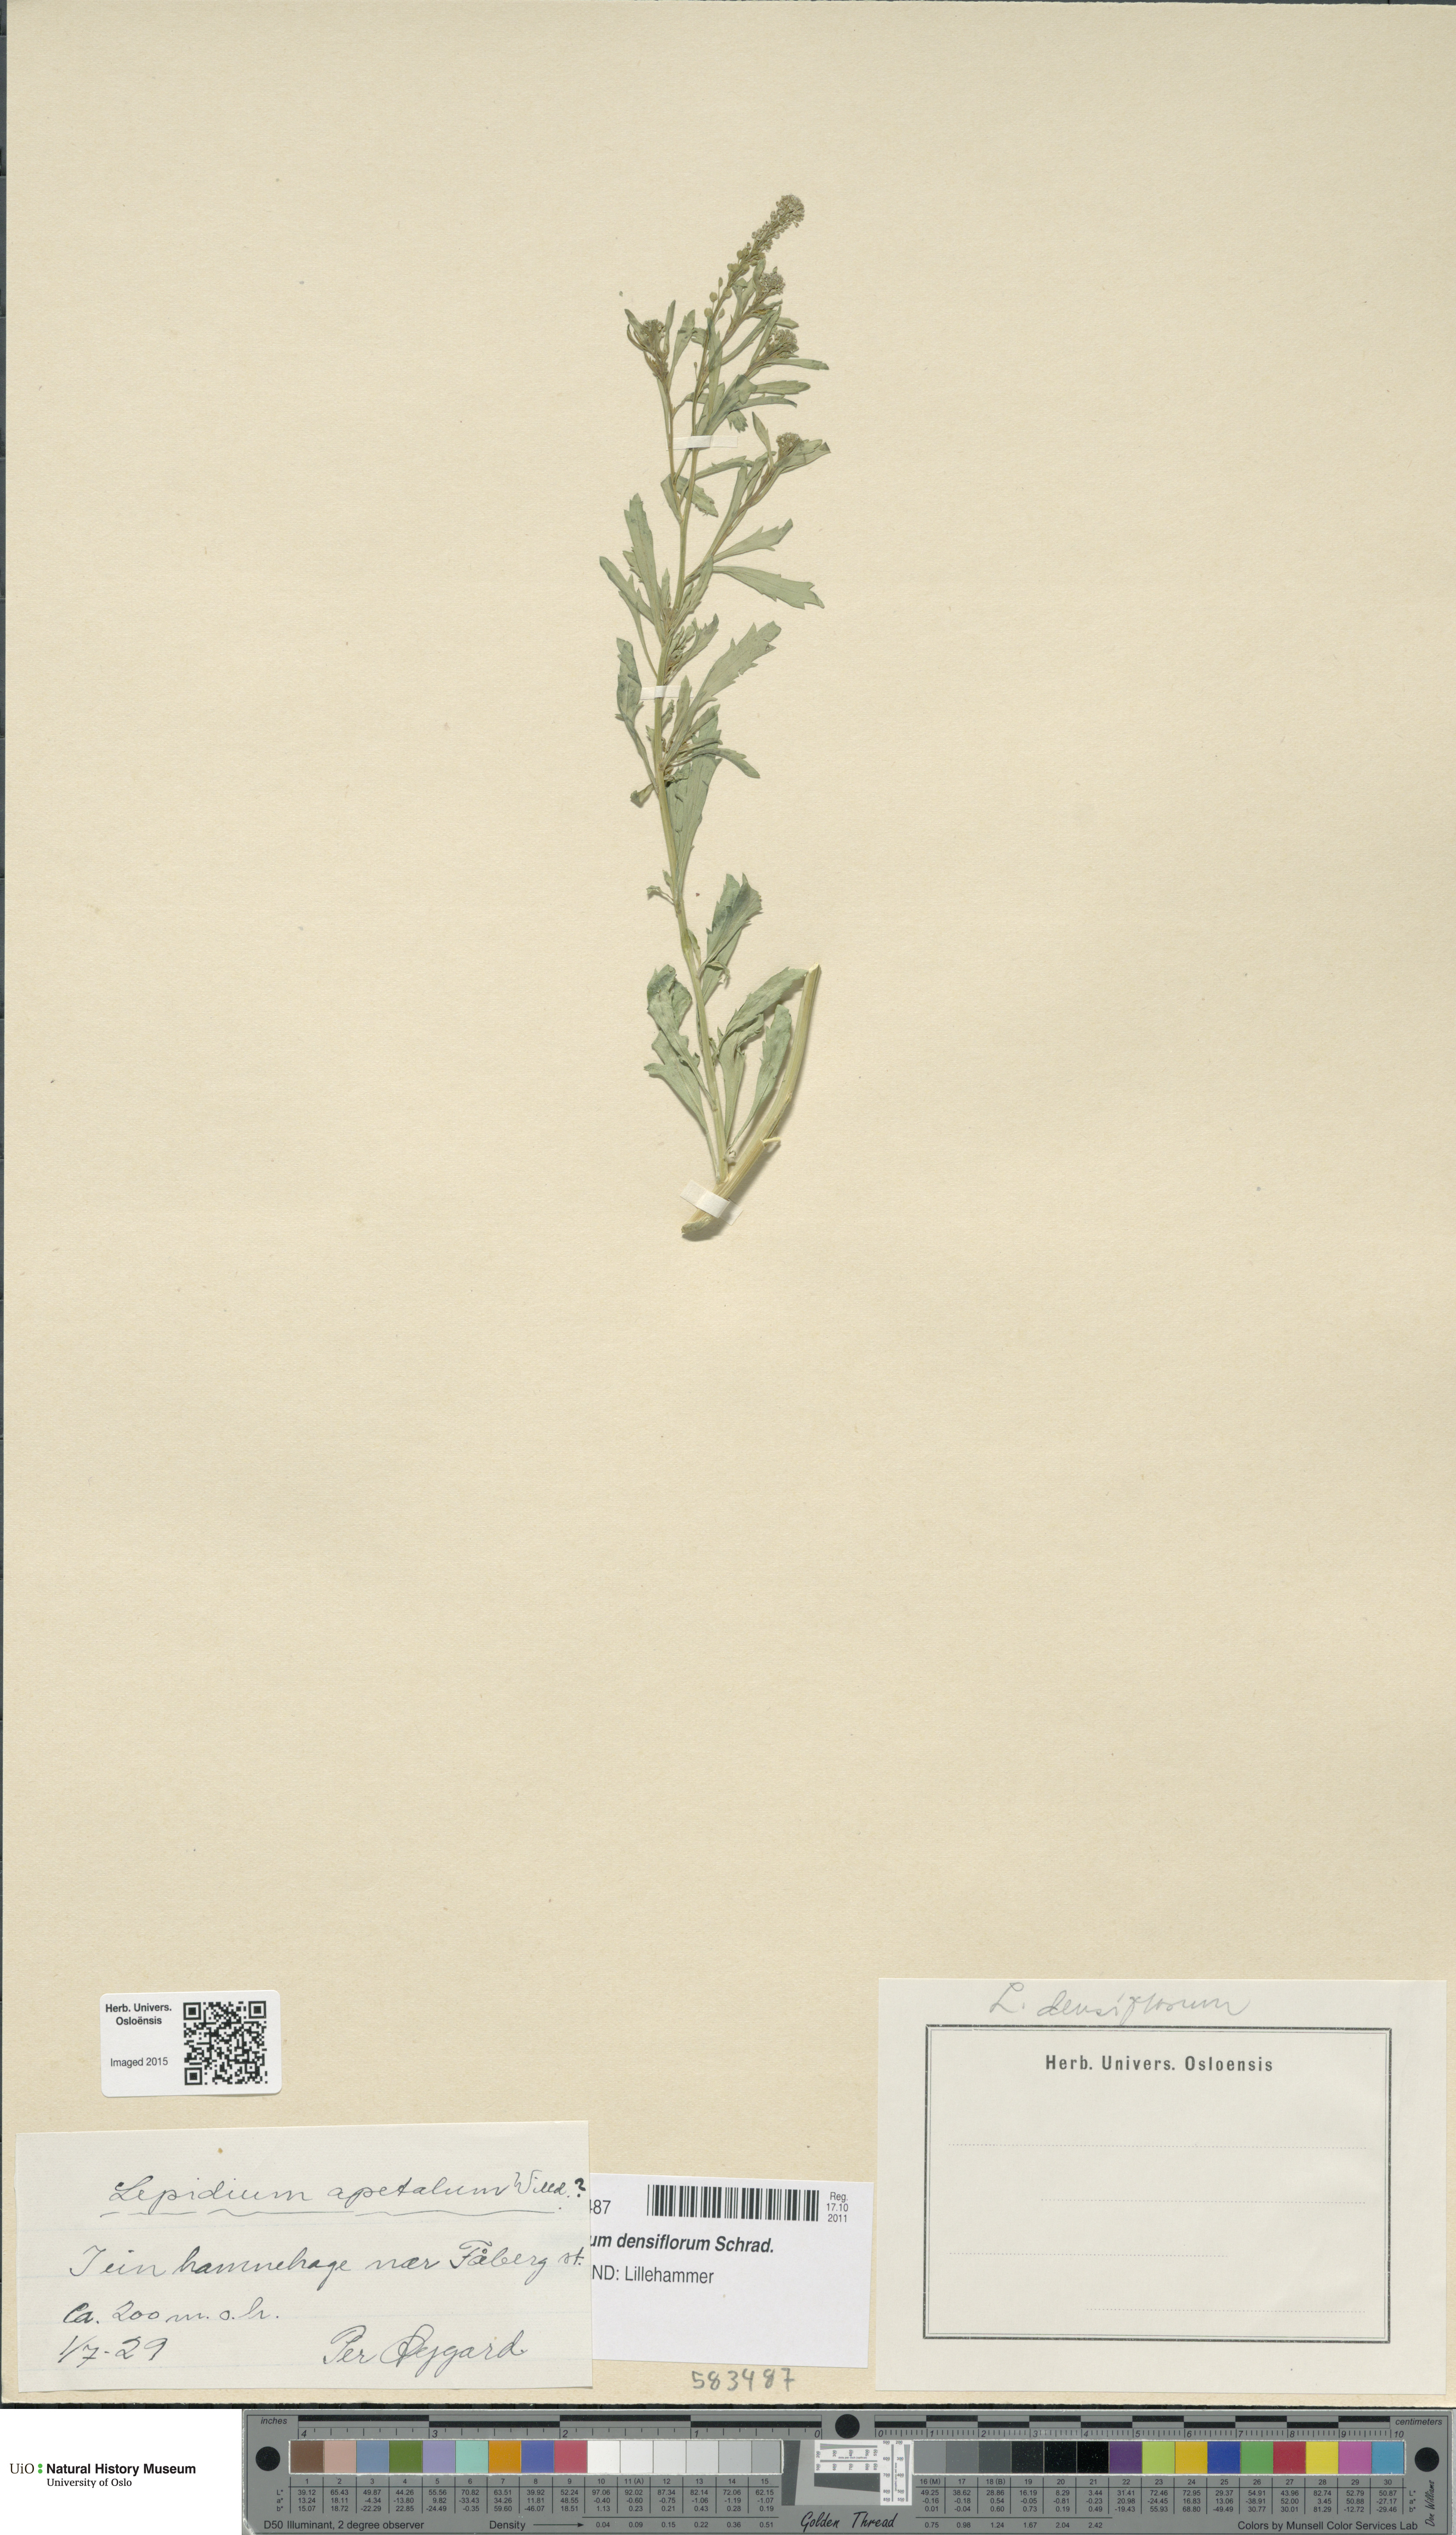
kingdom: Plantae
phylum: Tracheophyta
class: Magnoliopsida
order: Brassicales
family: Brassicaceae
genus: Lepidium
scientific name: Lepidium densiflorum
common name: Miner's pepperwort
